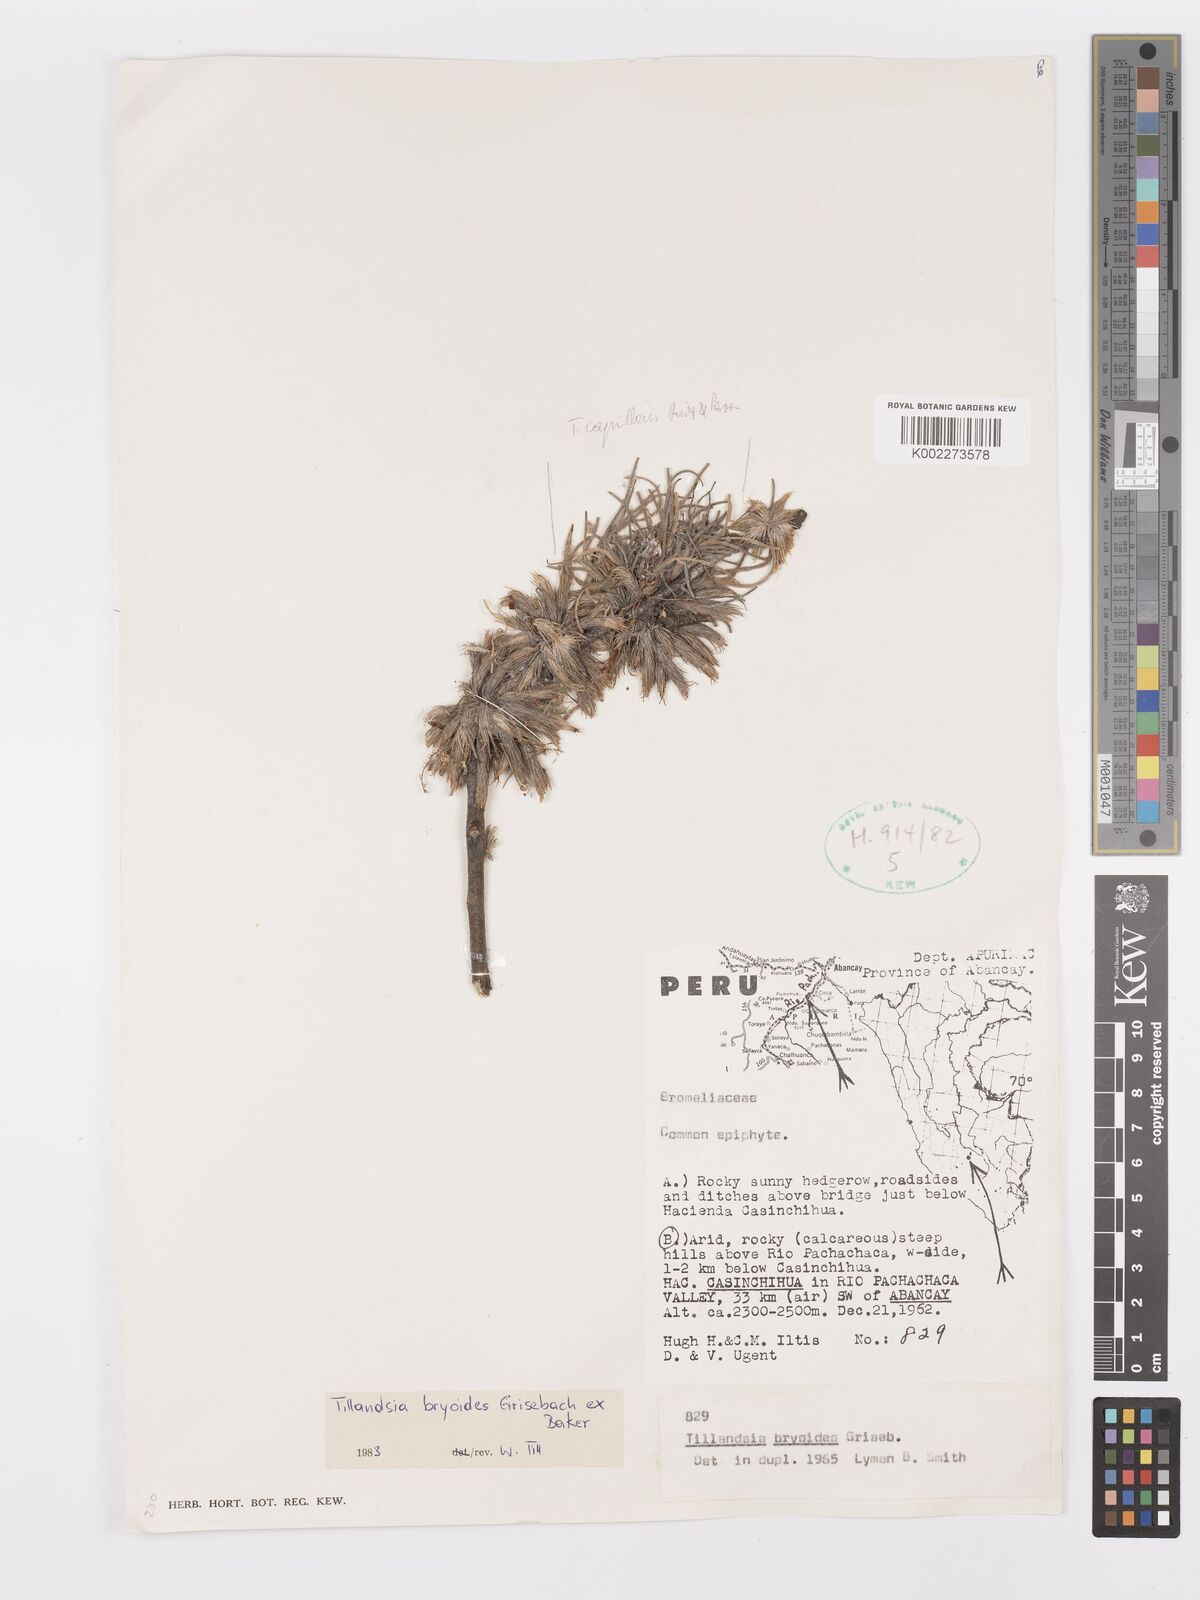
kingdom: Plantae
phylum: Tracheophyta
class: Liliopsida
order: Poales
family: Bromeliaceae
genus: Tillandsia
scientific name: Tillandsia tricholepis
